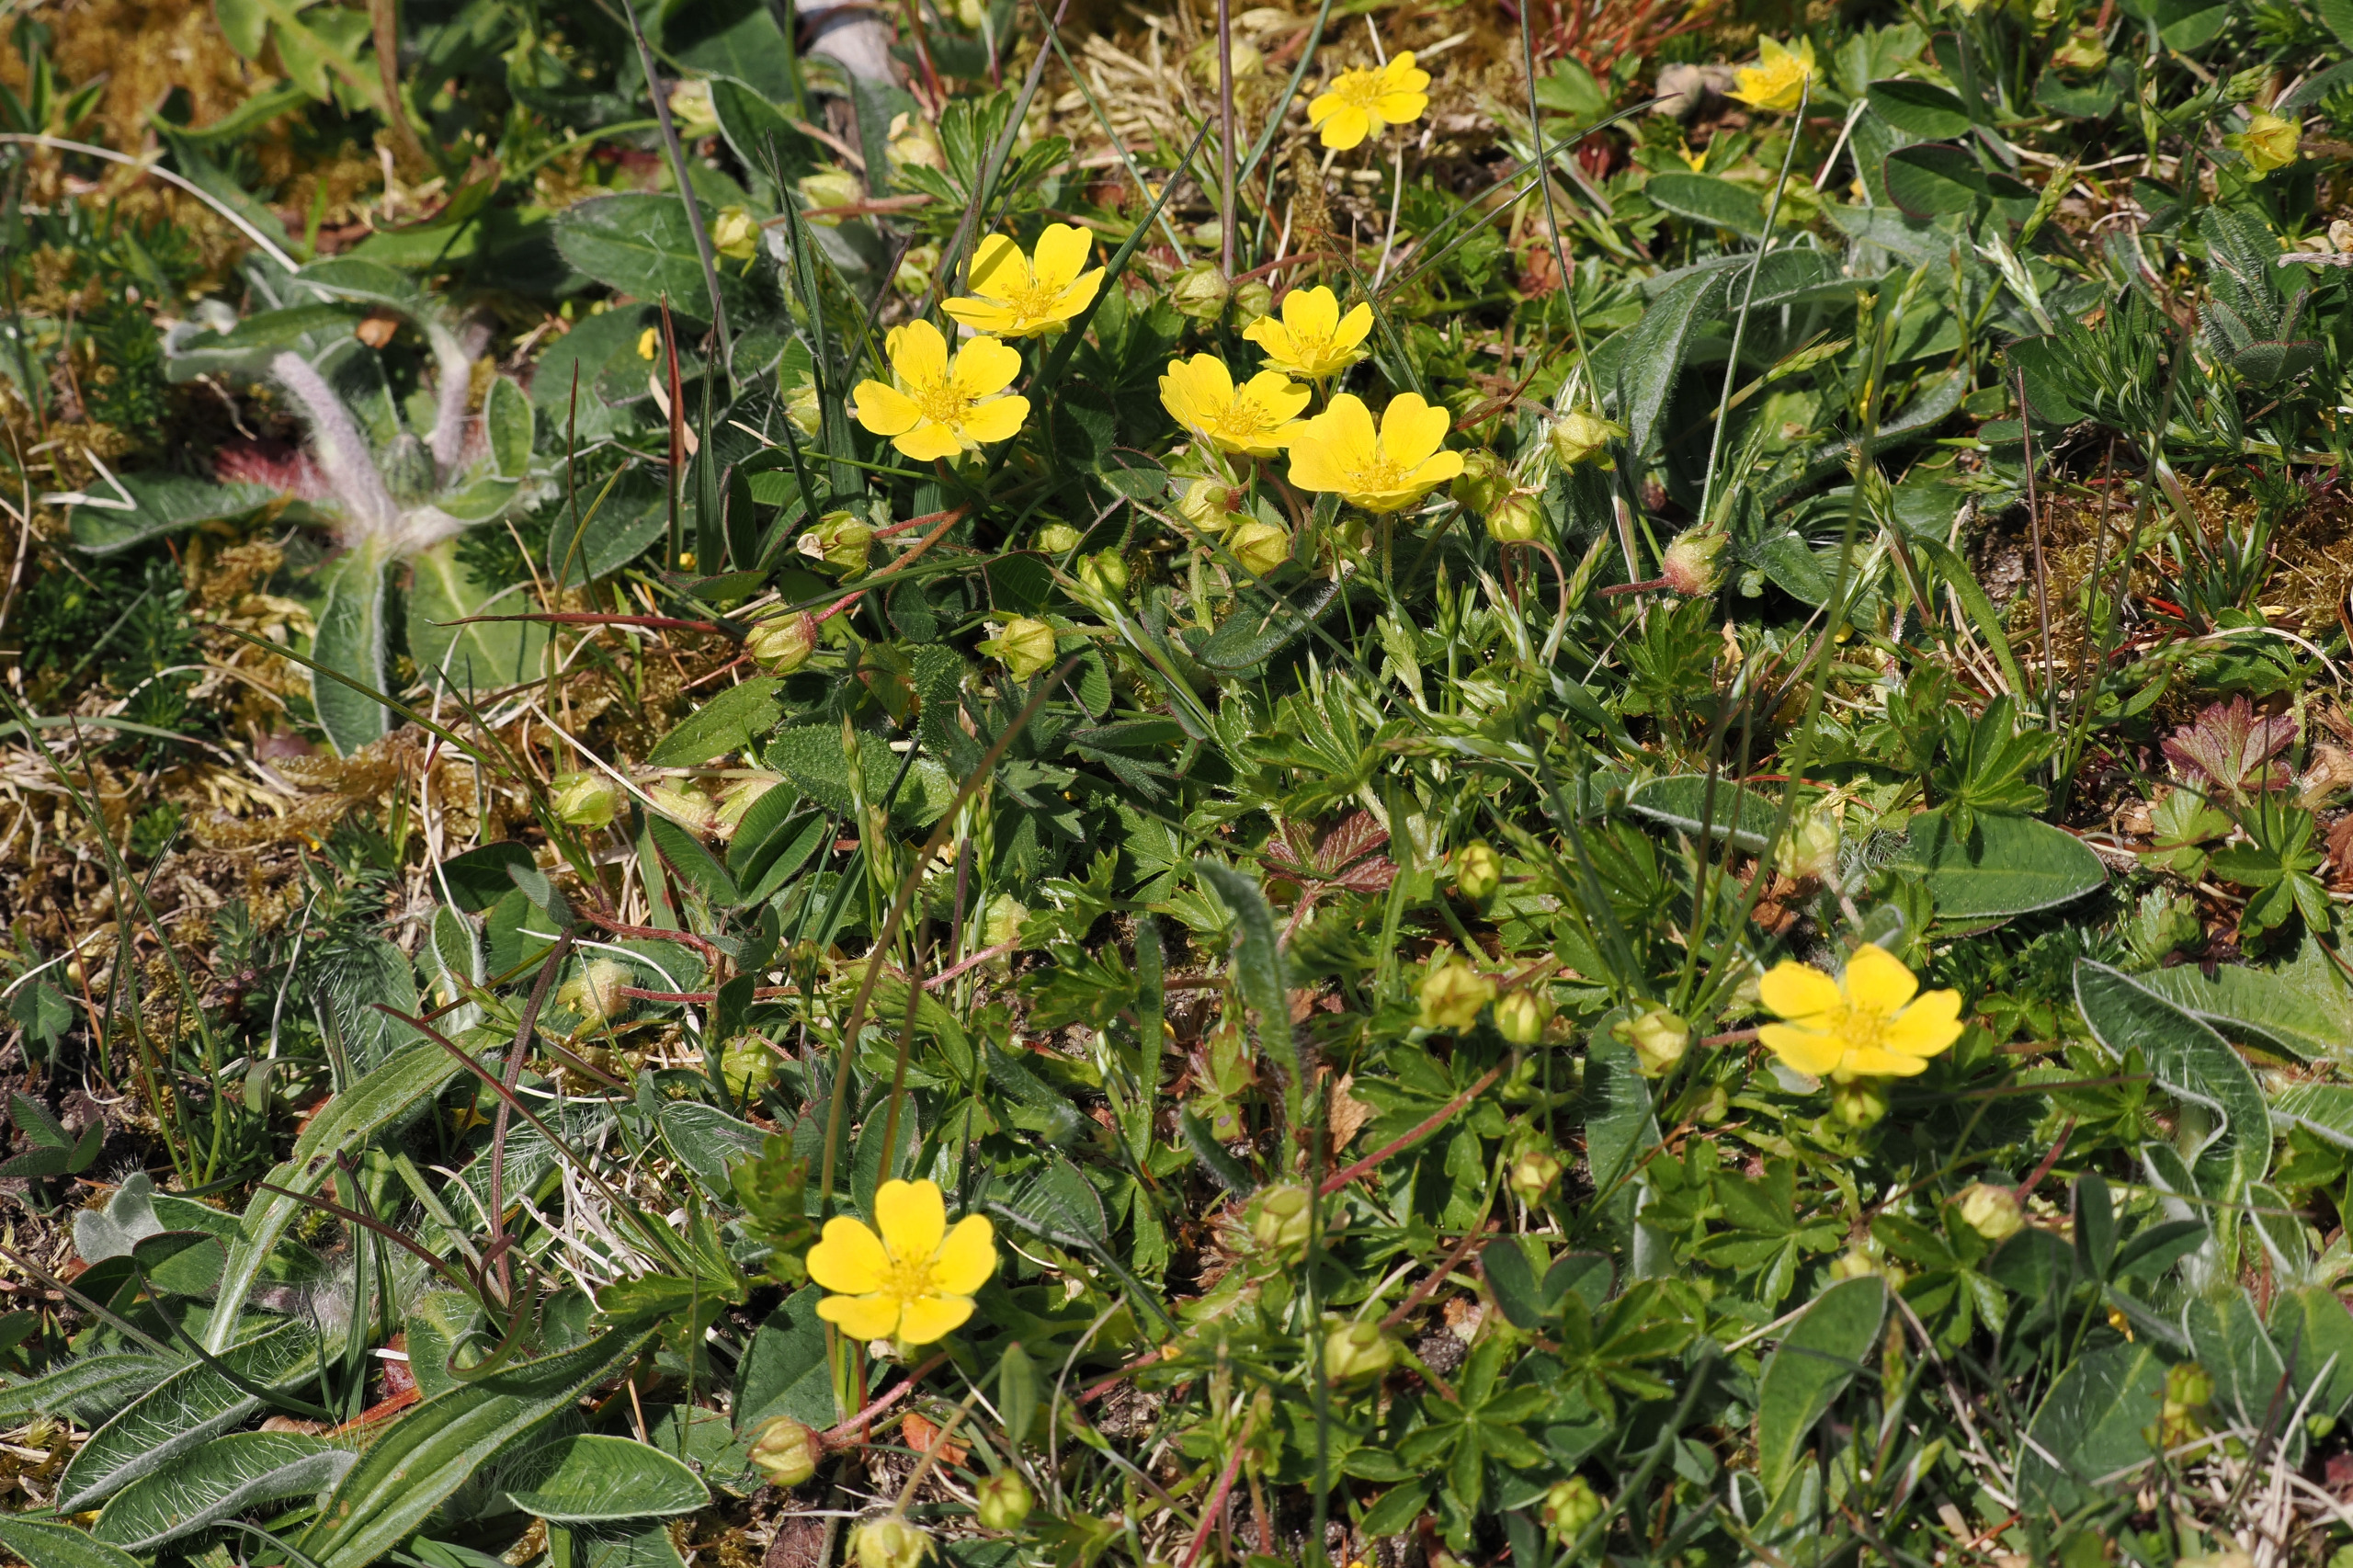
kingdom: Plantae
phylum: Tracheophyta
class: Magnoliopsida
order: Rosales
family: Rosaceae
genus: Potentilla
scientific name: Potentilla verna
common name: Vår-potentil
